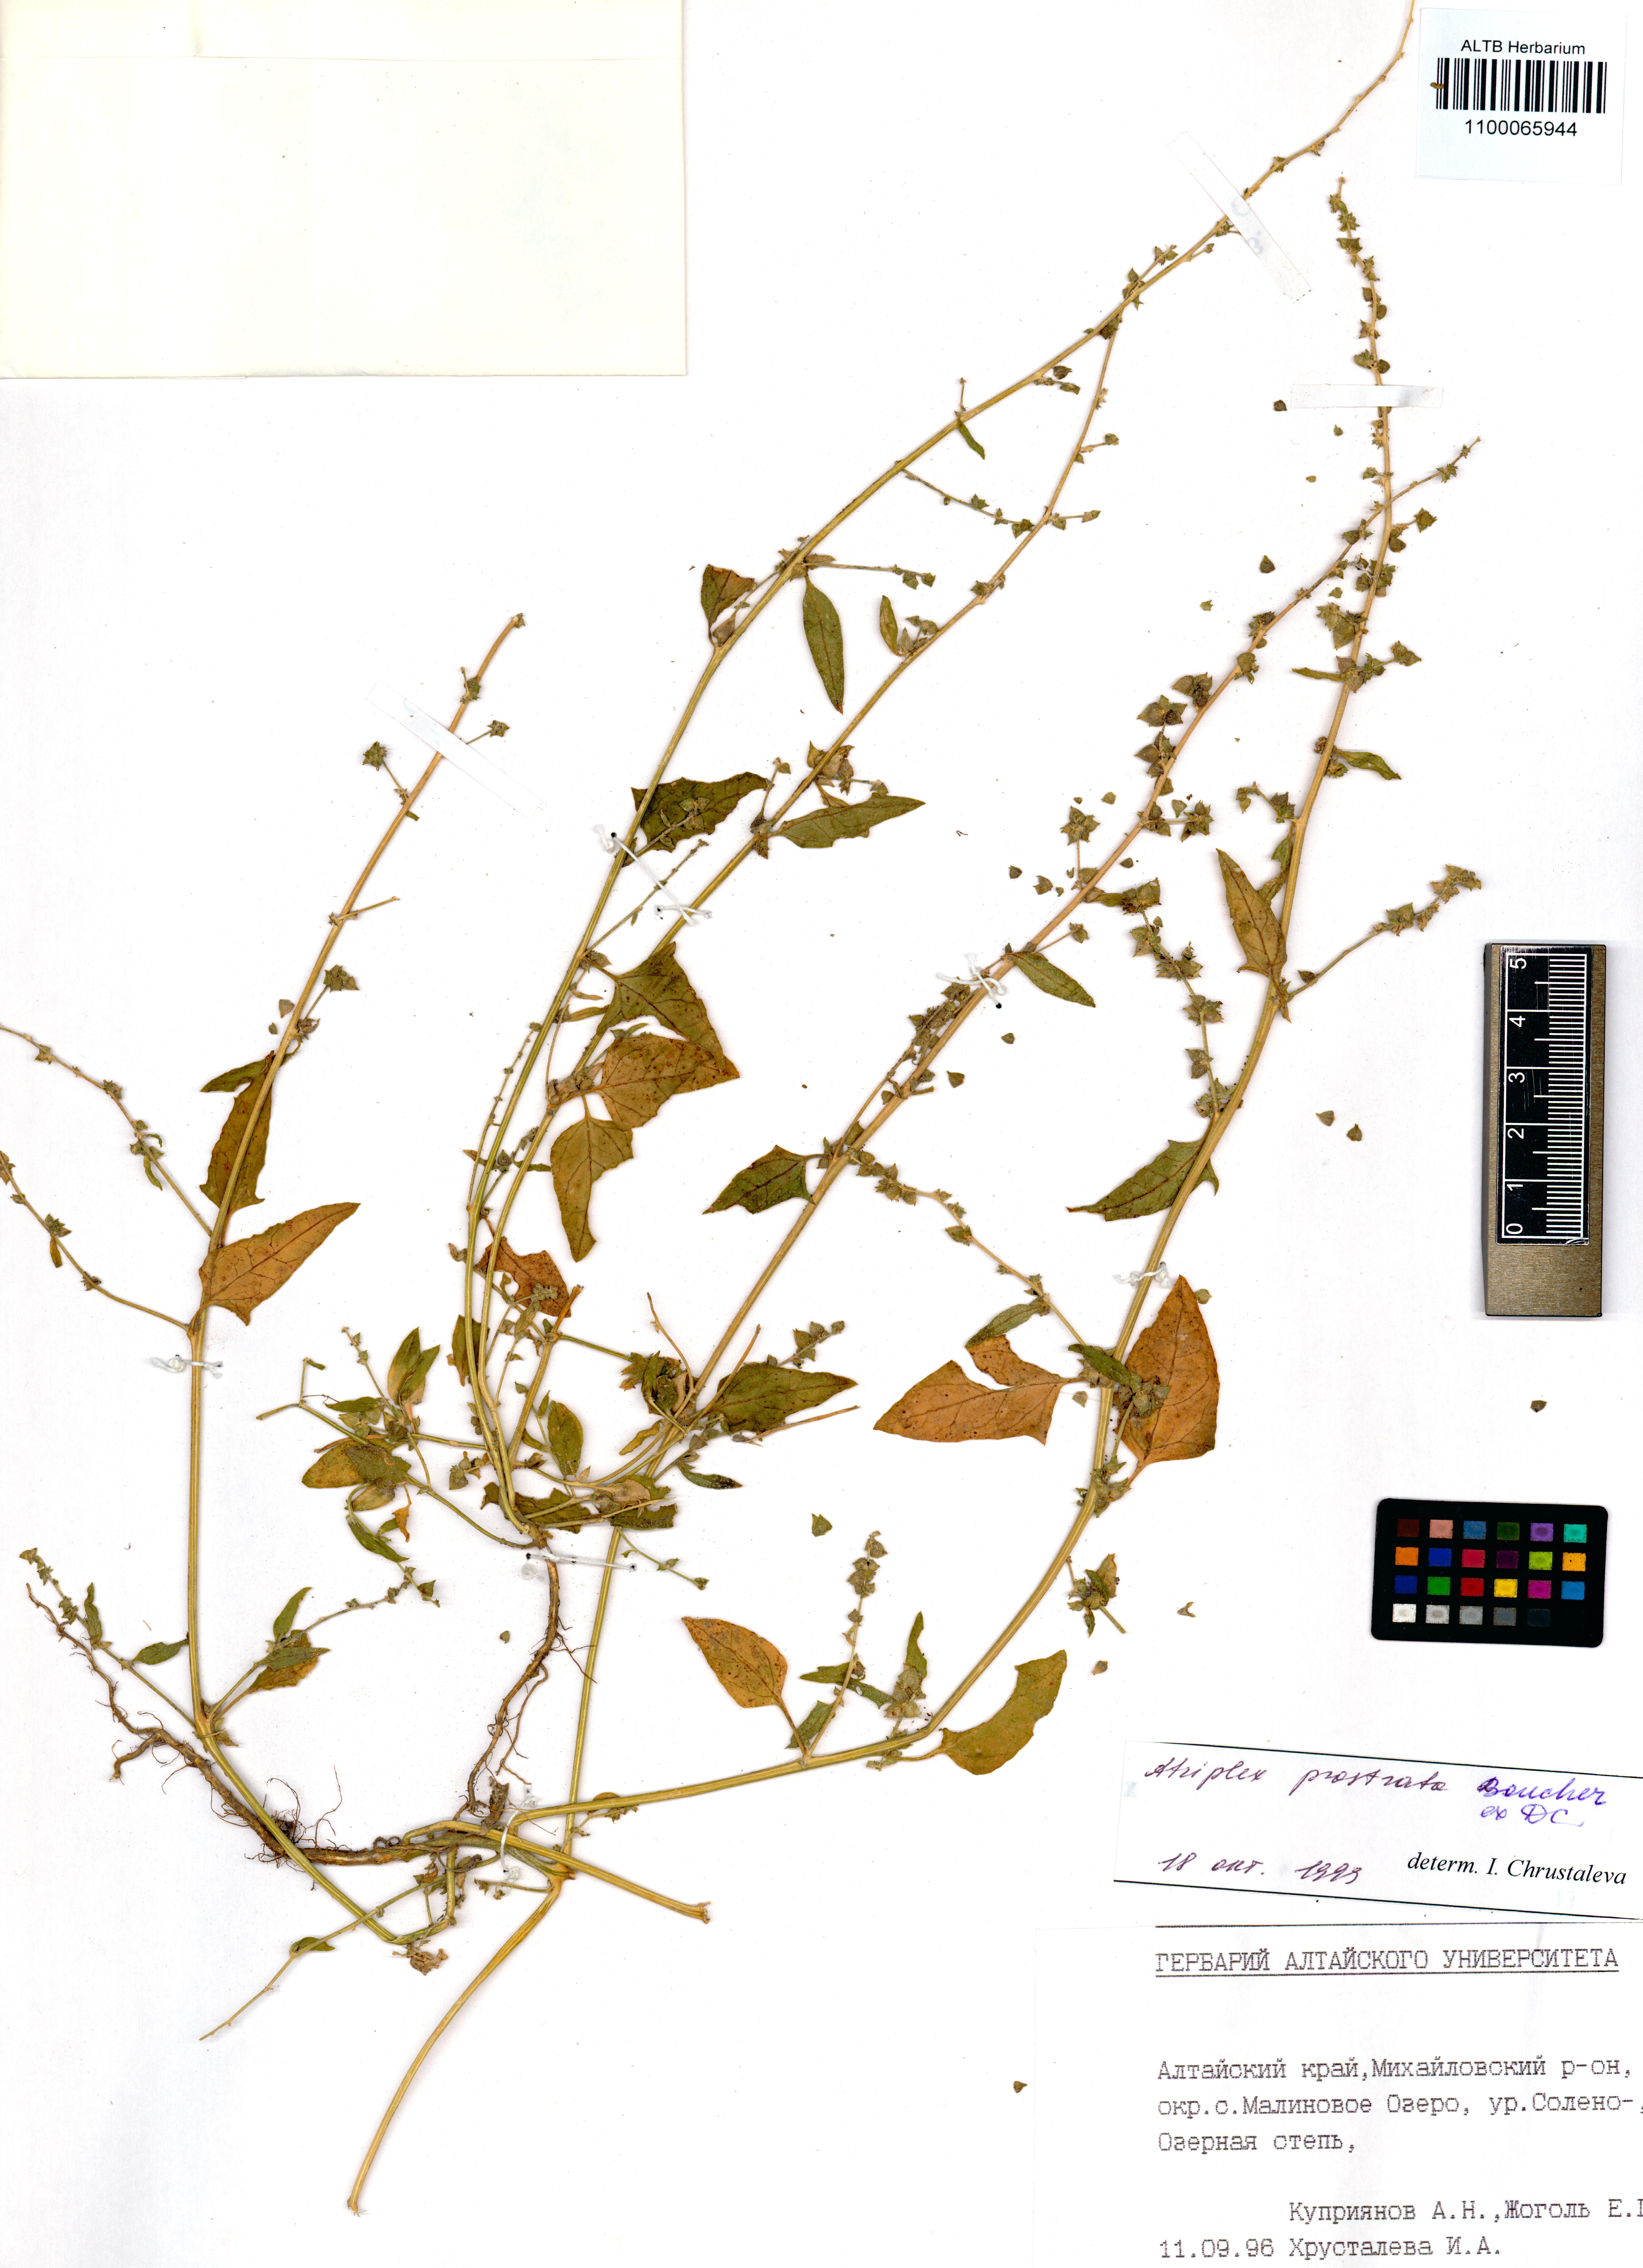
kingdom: Plantae
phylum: Tracheophyta
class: Magnoliopsida
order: Caryophyllales
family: Amaranthaceae
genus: Atriplex
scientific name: Atriplex prostrata
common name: Spear-leaved orache
